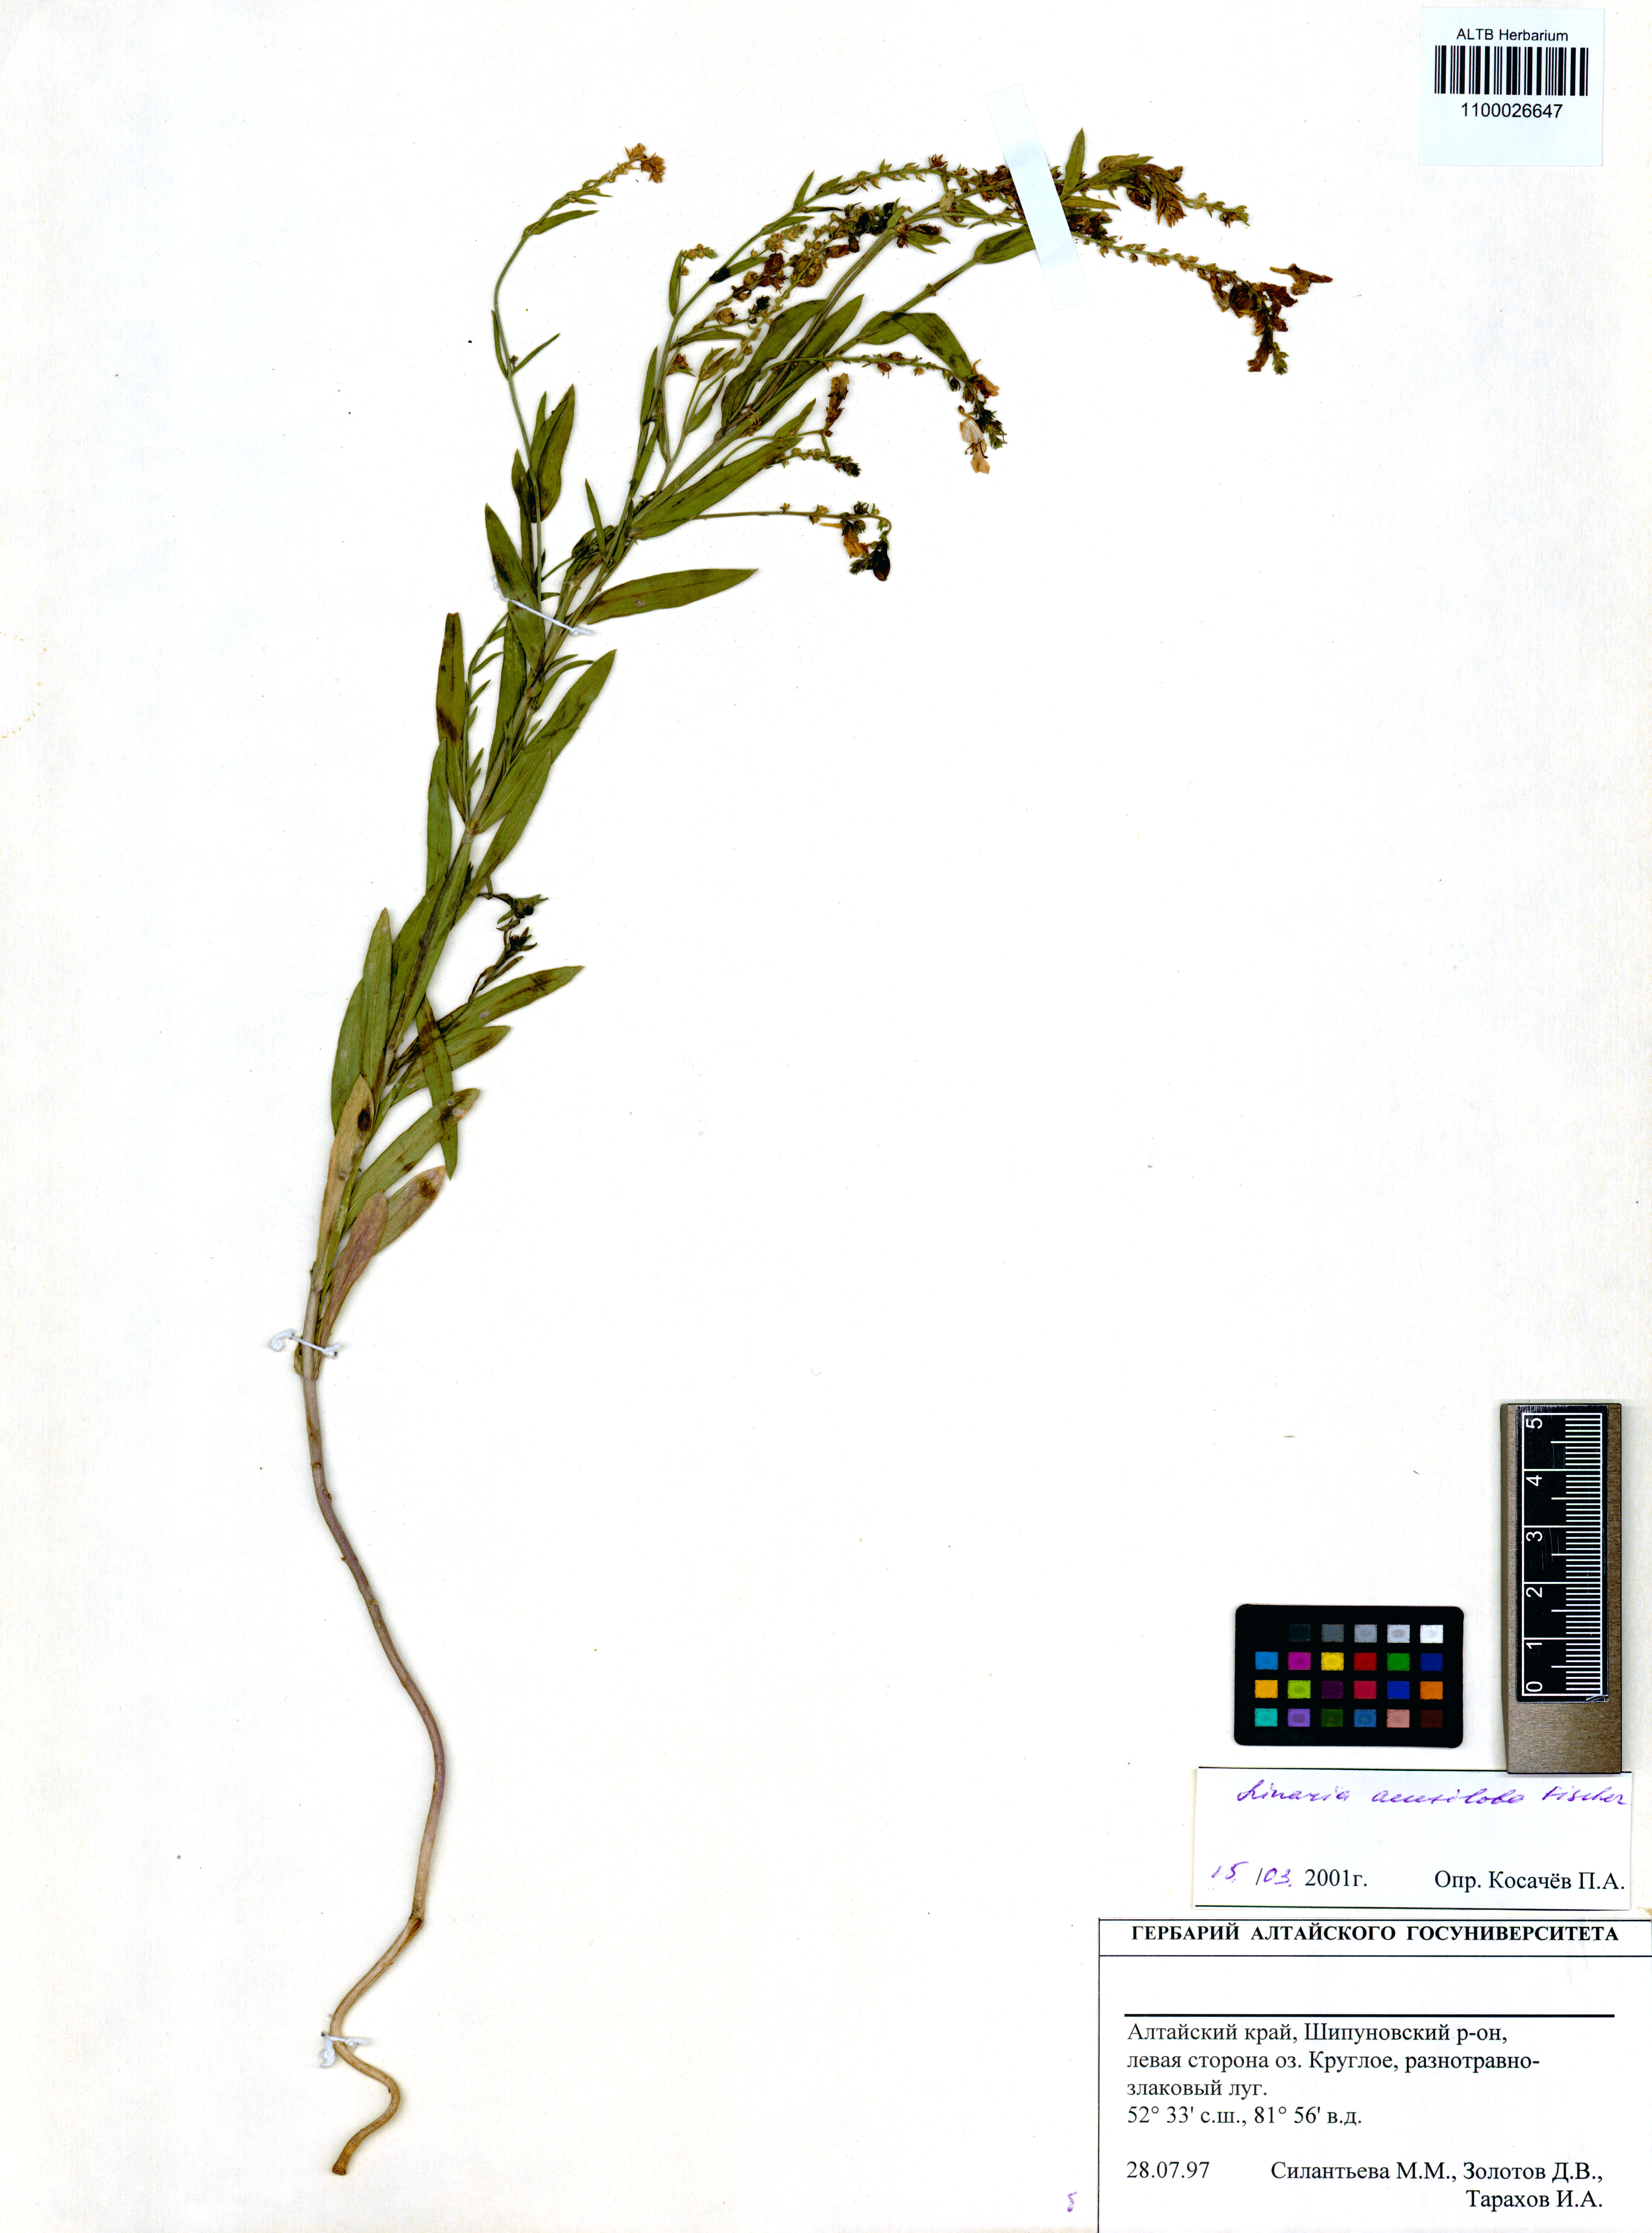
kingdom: Plantae
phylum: Tracheophyta
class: Magnoliopsida
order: Lamiales
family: Plantaginaceae
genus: Linaria
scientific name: Linaria acutiloba
